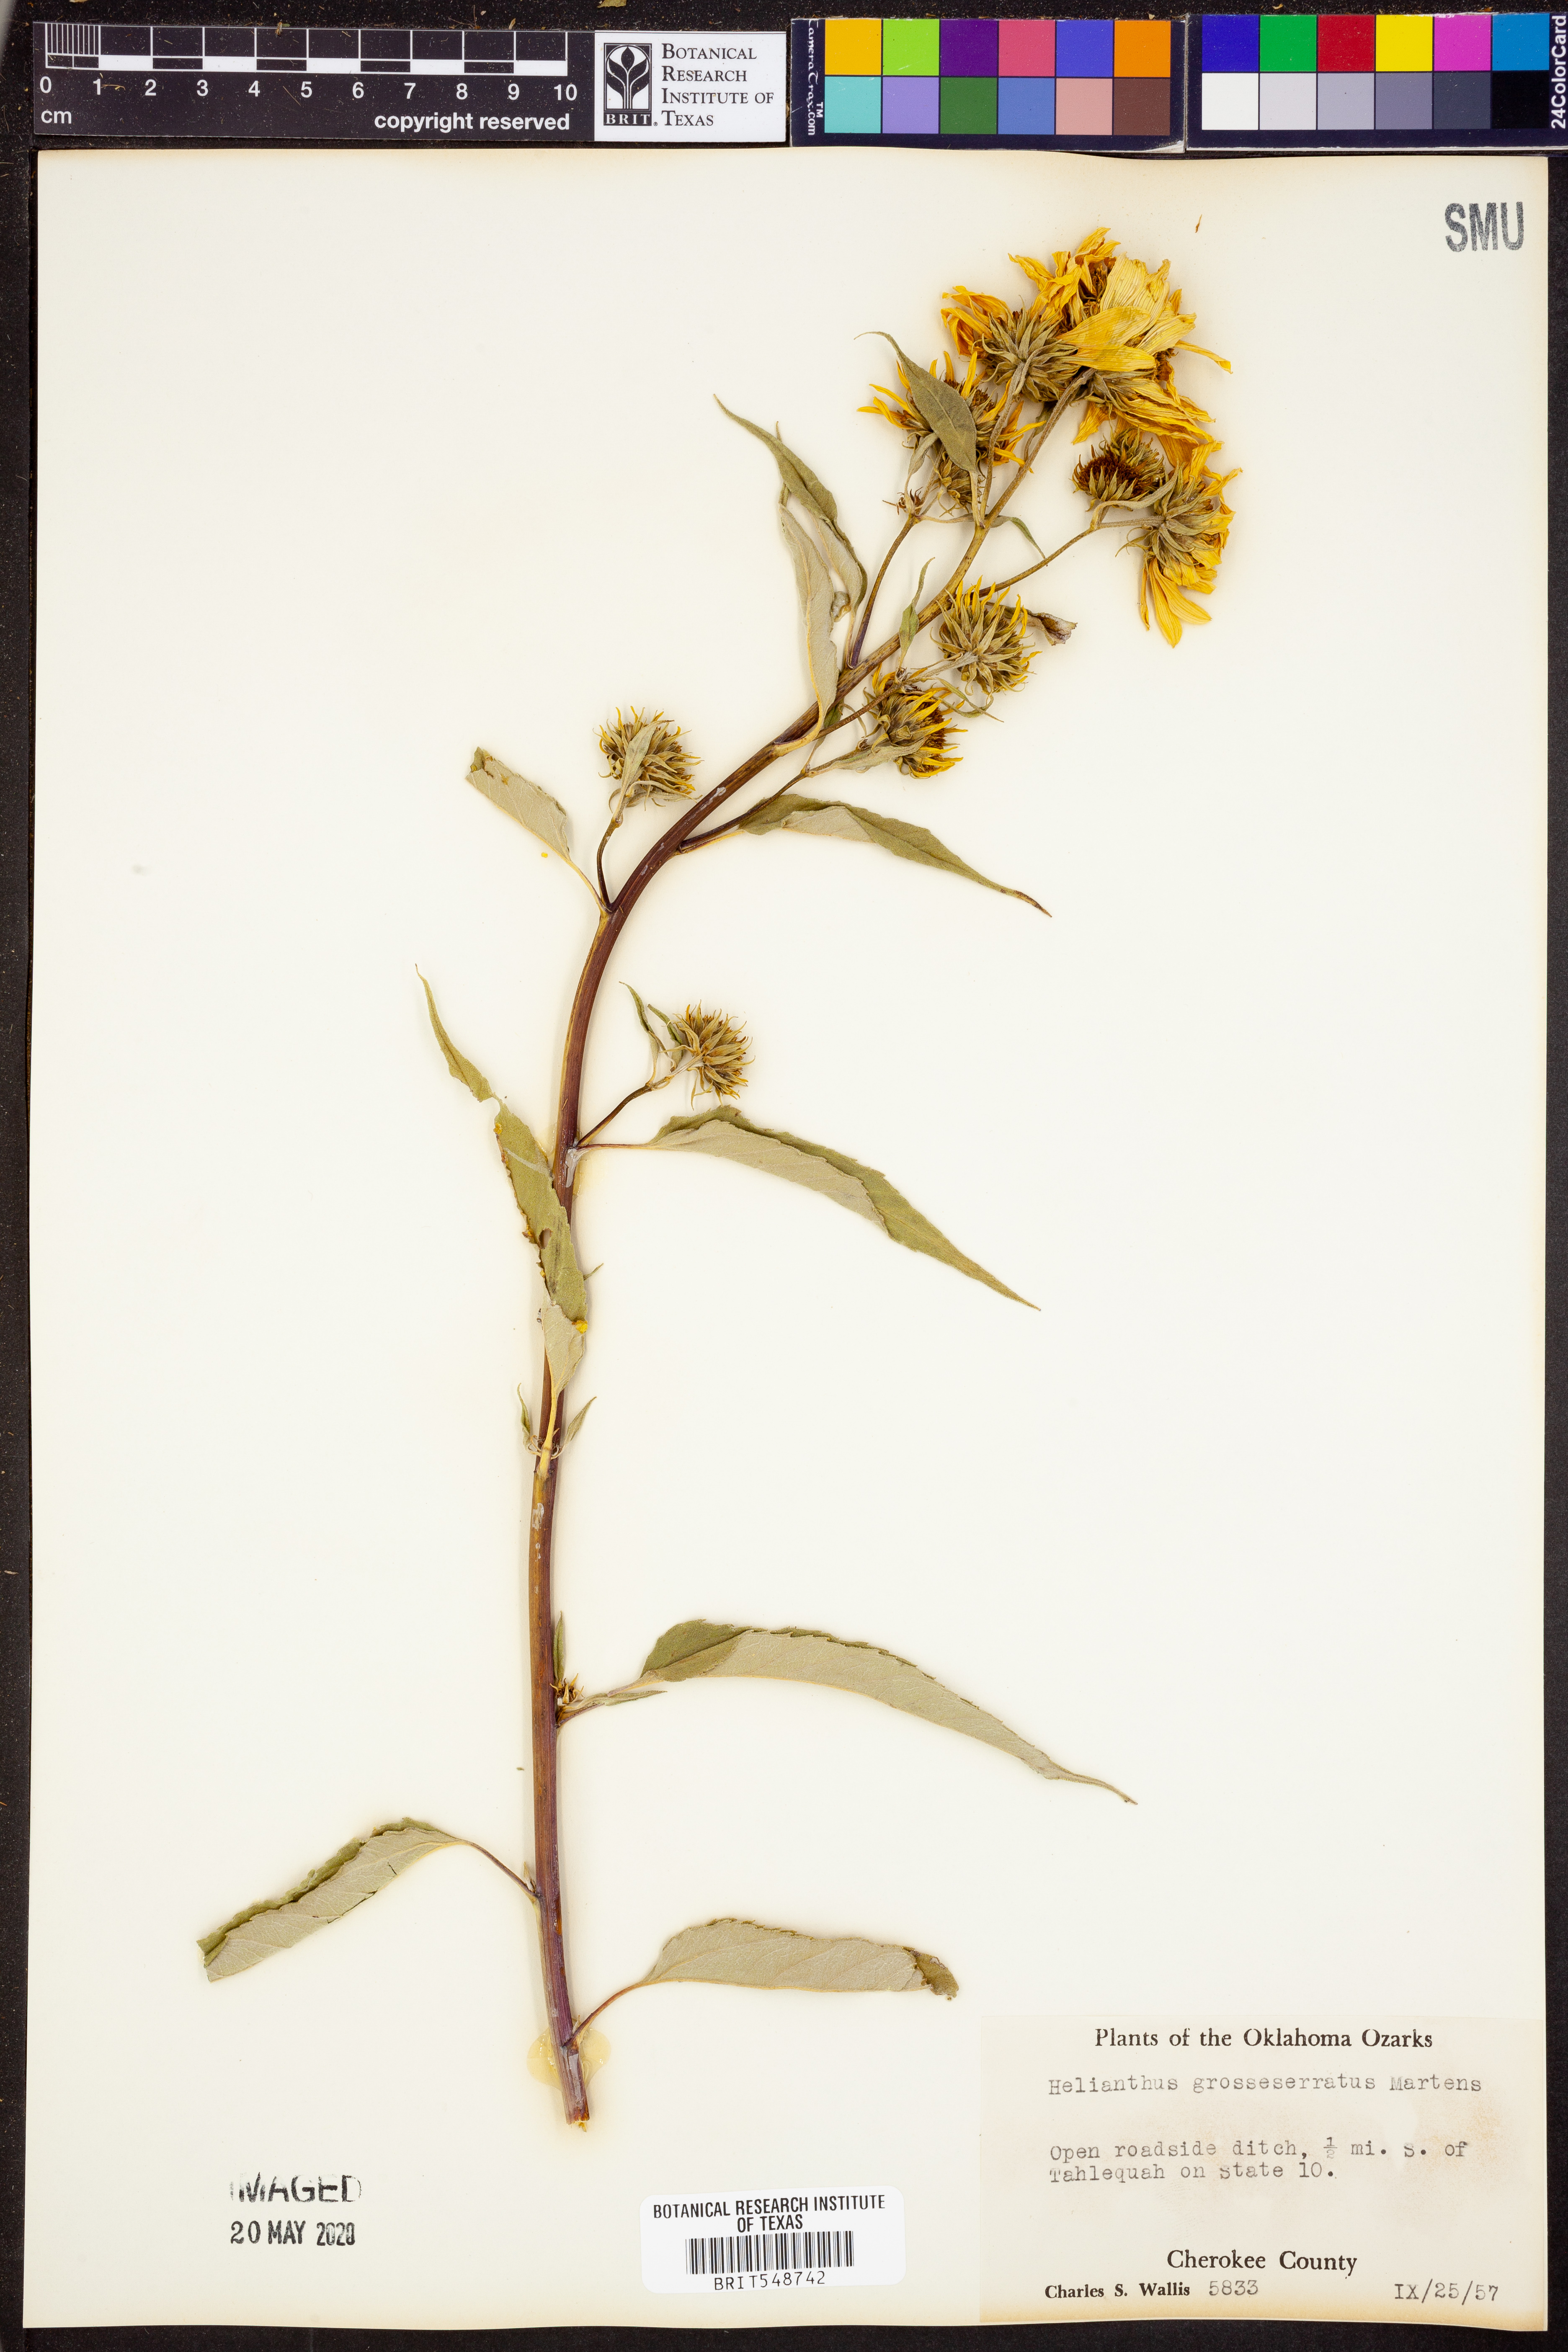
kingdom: Plantae
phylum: Tracheophyta
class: Magnoliopsida
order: Asterales
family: Asteraceae
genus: Helianthus
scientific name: Helianthus grosseserratus
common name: Sawtooth sunflower
